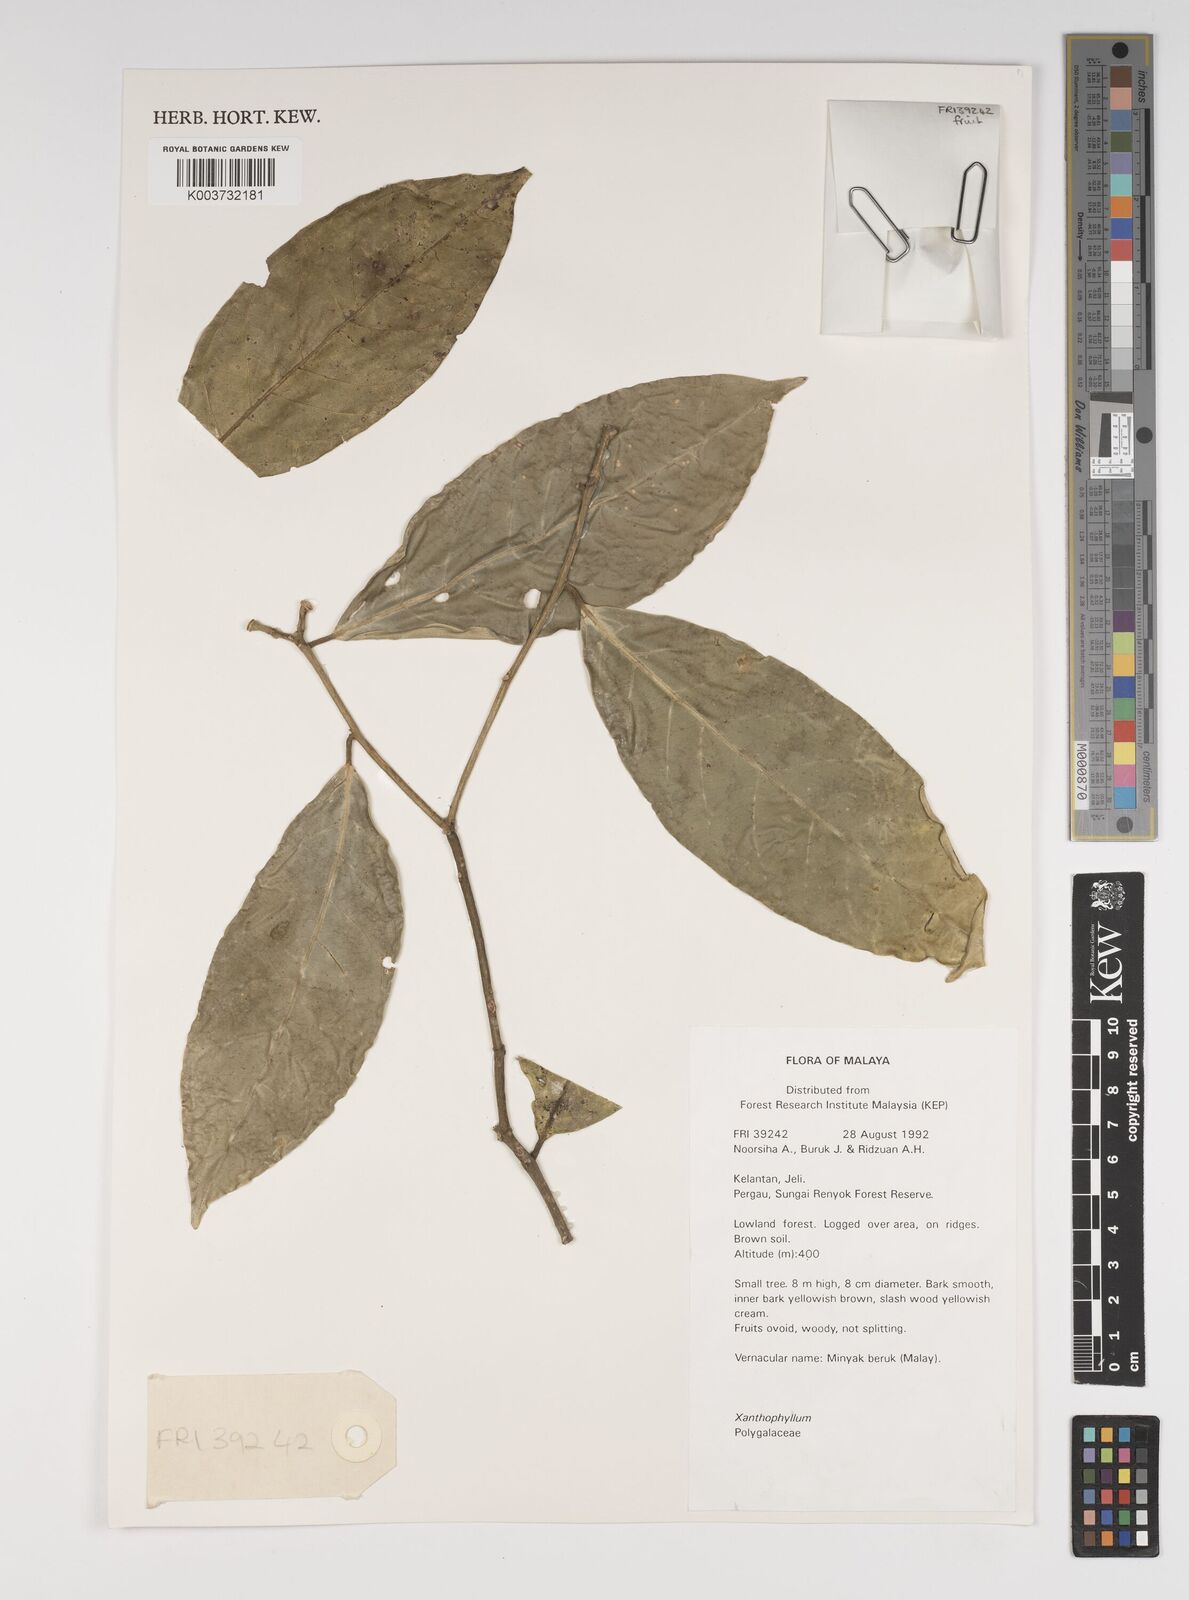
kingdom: Plantae
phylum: Tracheophyta
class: Magnoliopsida
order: Fabales
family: Polygalaceae
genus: Xanthophyllum
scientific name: Xanthophyllum
